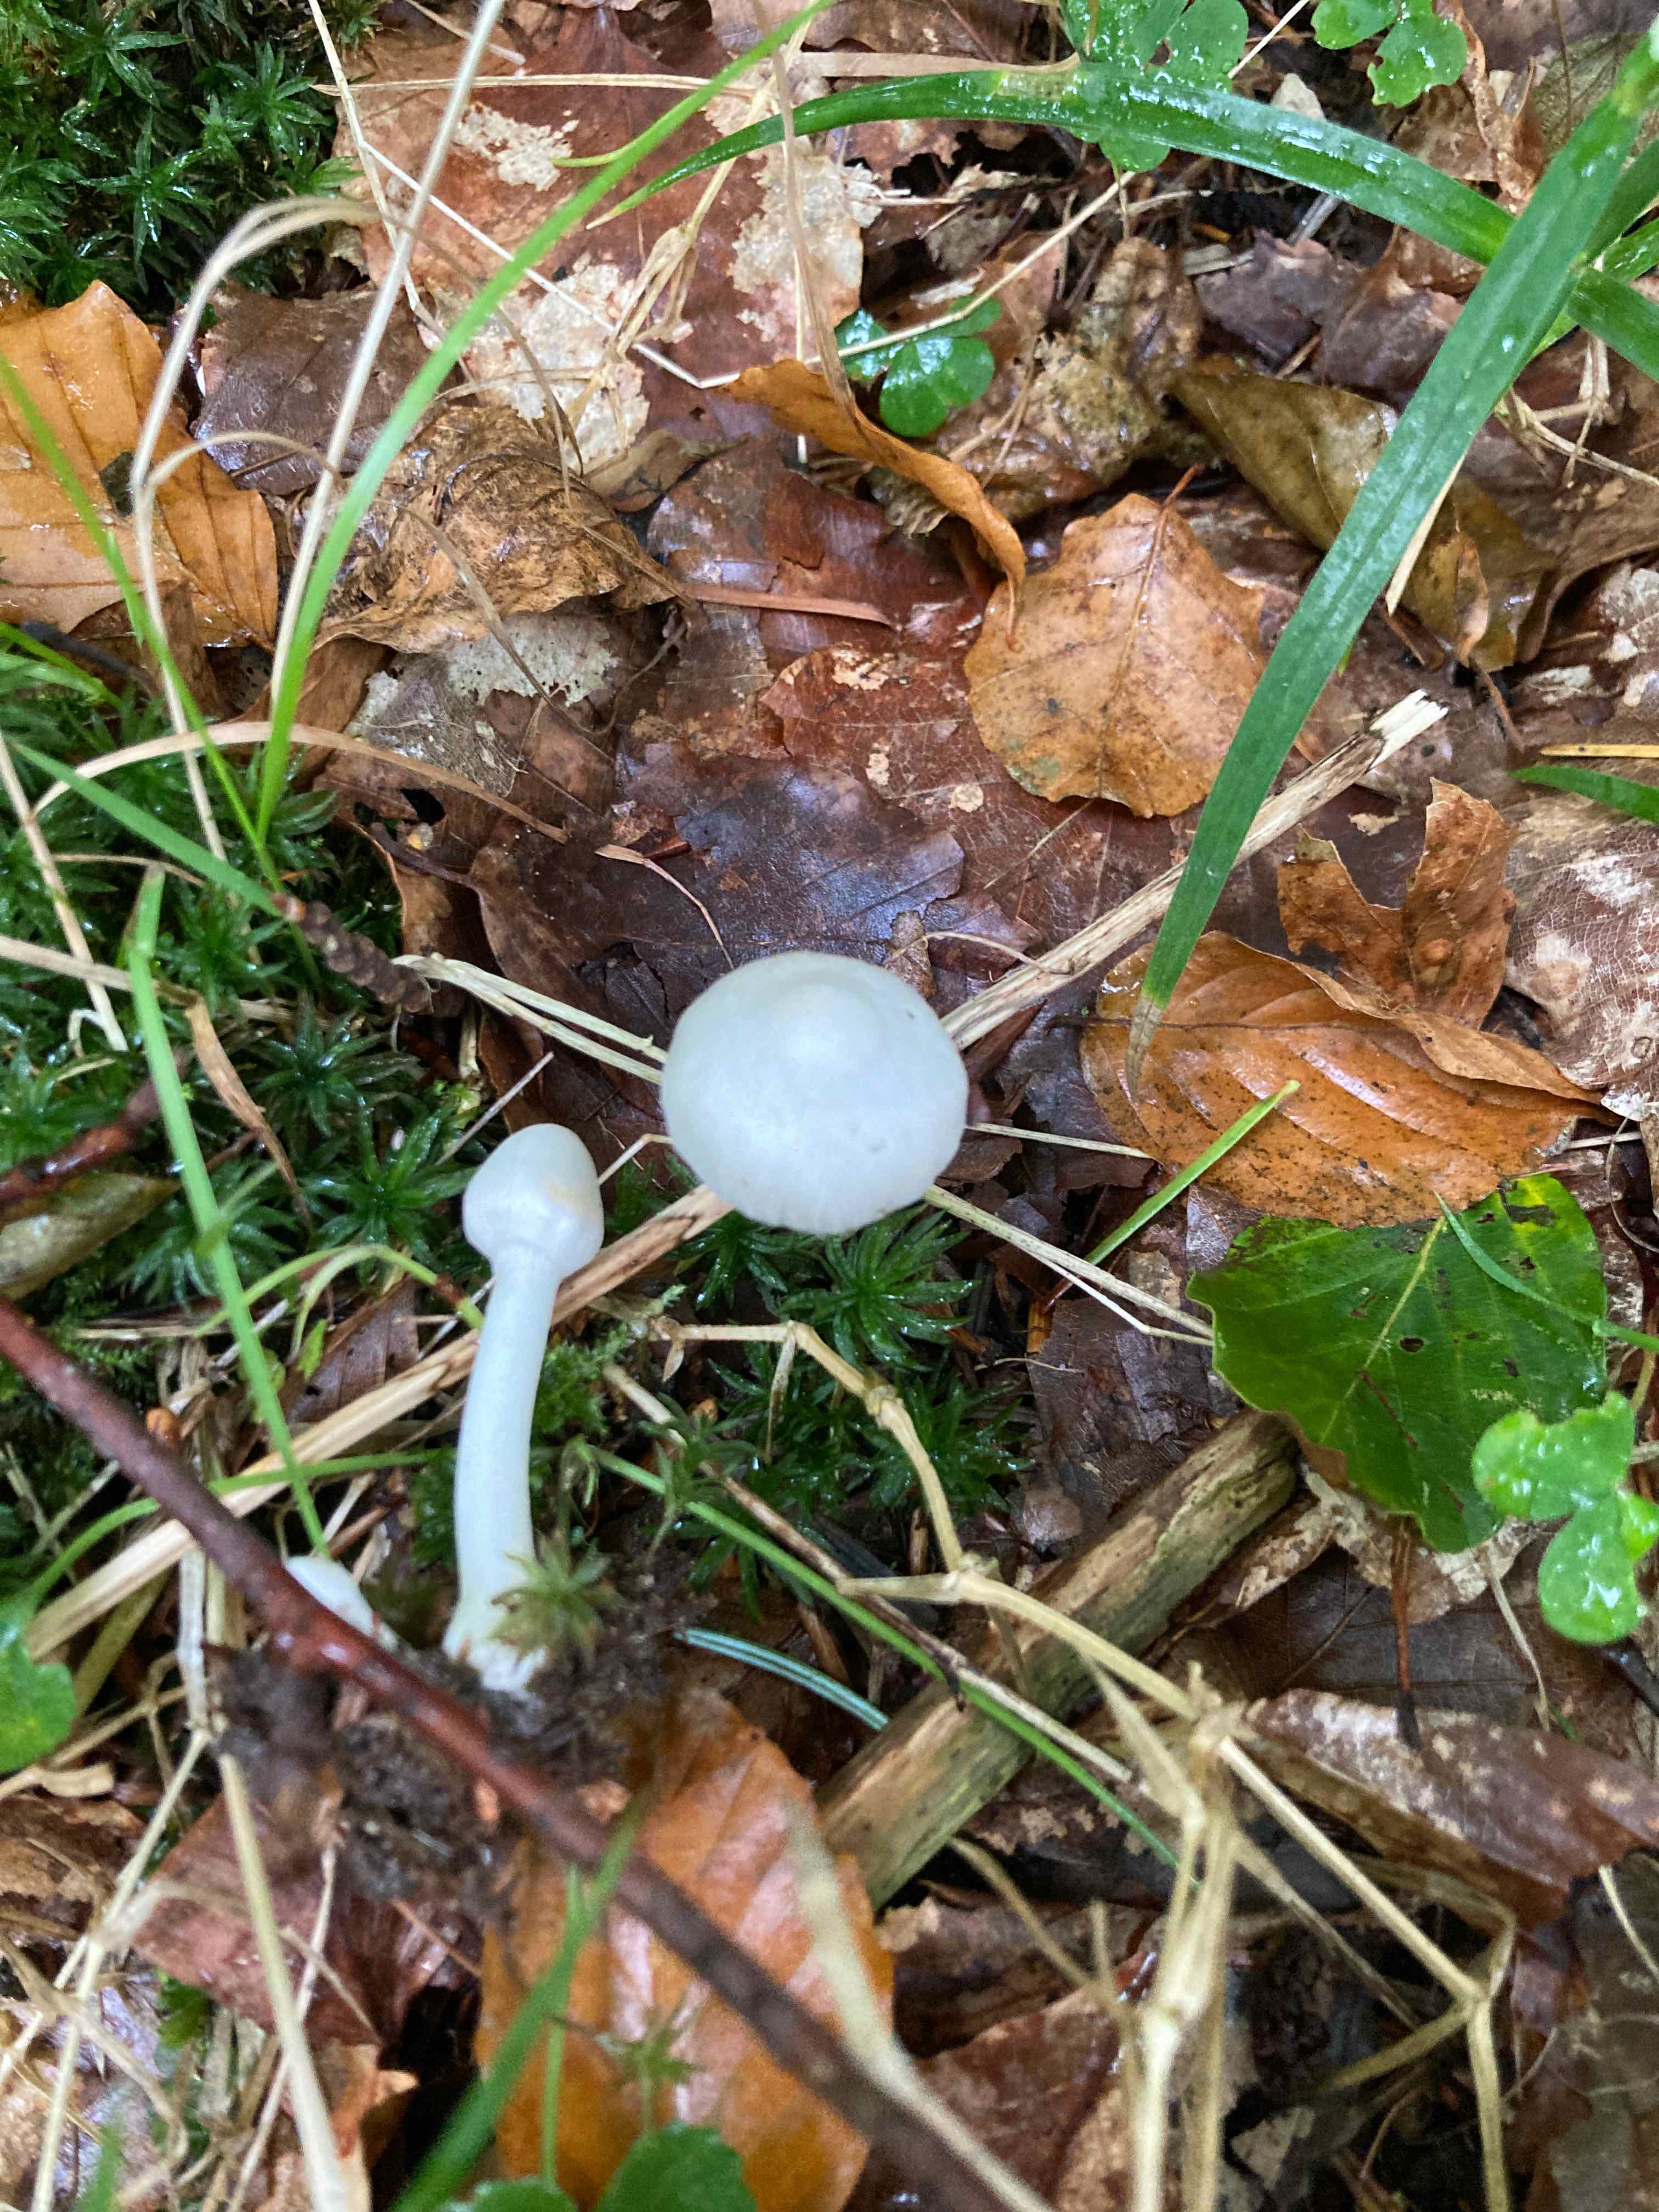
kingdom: Fungi
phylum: Basidiomycota
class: Agaricomycetes
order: Agaricales
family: Inocybaceae
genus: Inocybe
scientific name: Inocybe
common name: almindelig trævlhat
